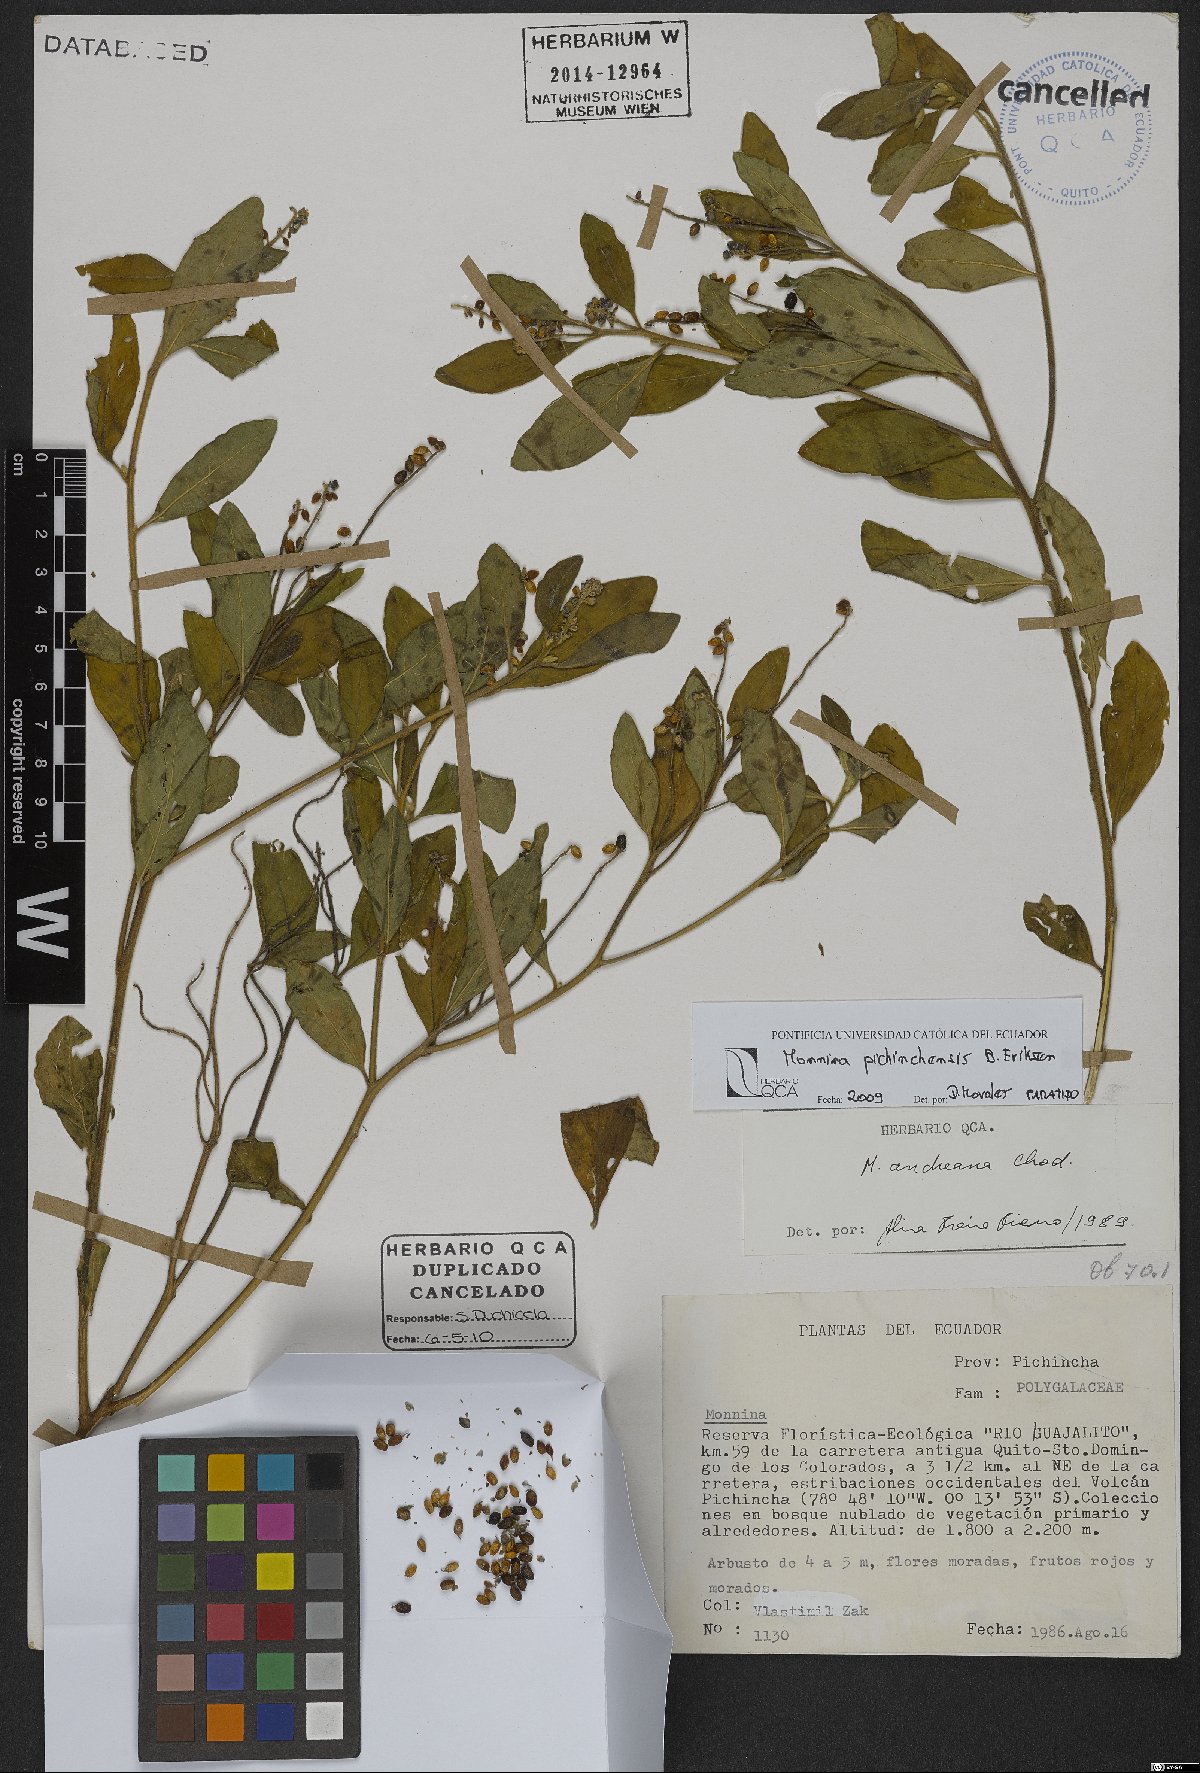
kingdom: Plantae
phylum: Tracheophyta
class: Magnoliopsida
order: Fabales
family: Polygalaceae
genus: Monnina
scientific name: Monnina pichinchensis
